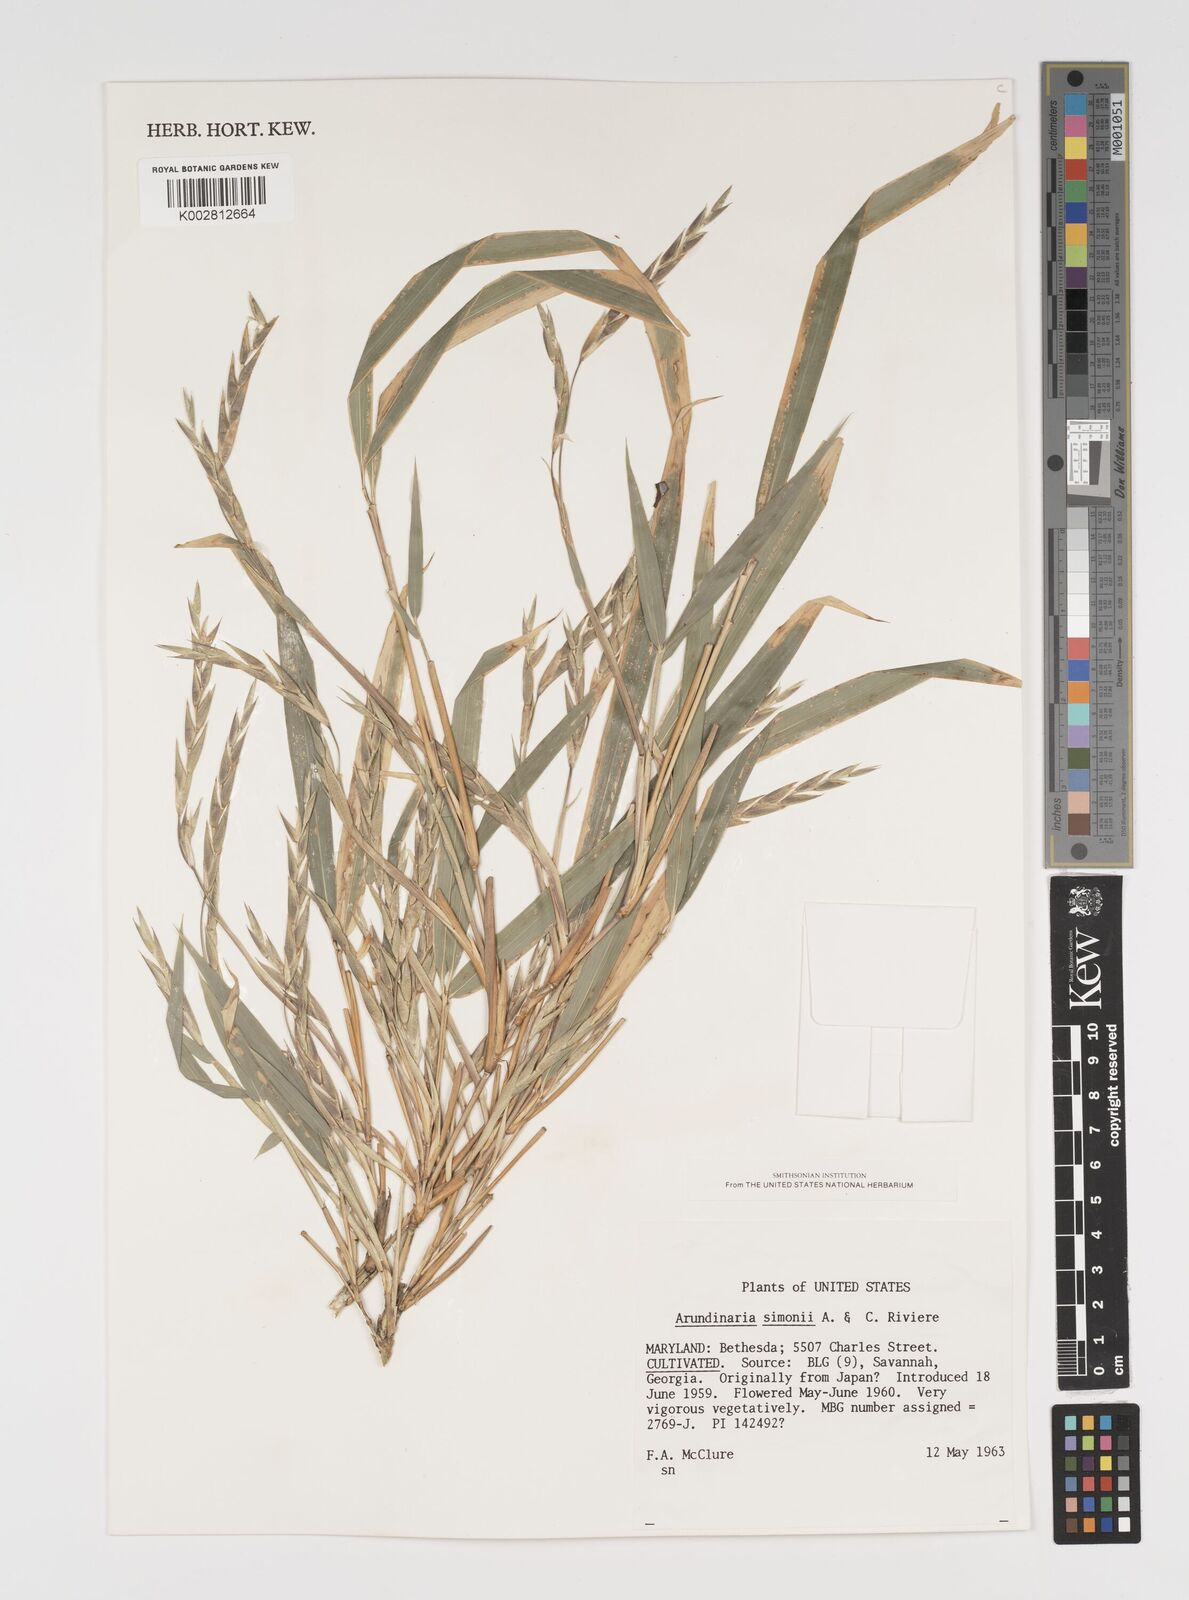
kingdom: Plantae
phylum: Tracheophyta
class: Liliopsida
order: Poales
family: Poaceae
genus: Pleioblastus
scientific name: Pleioblastus simonii
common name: Simon bamboo
